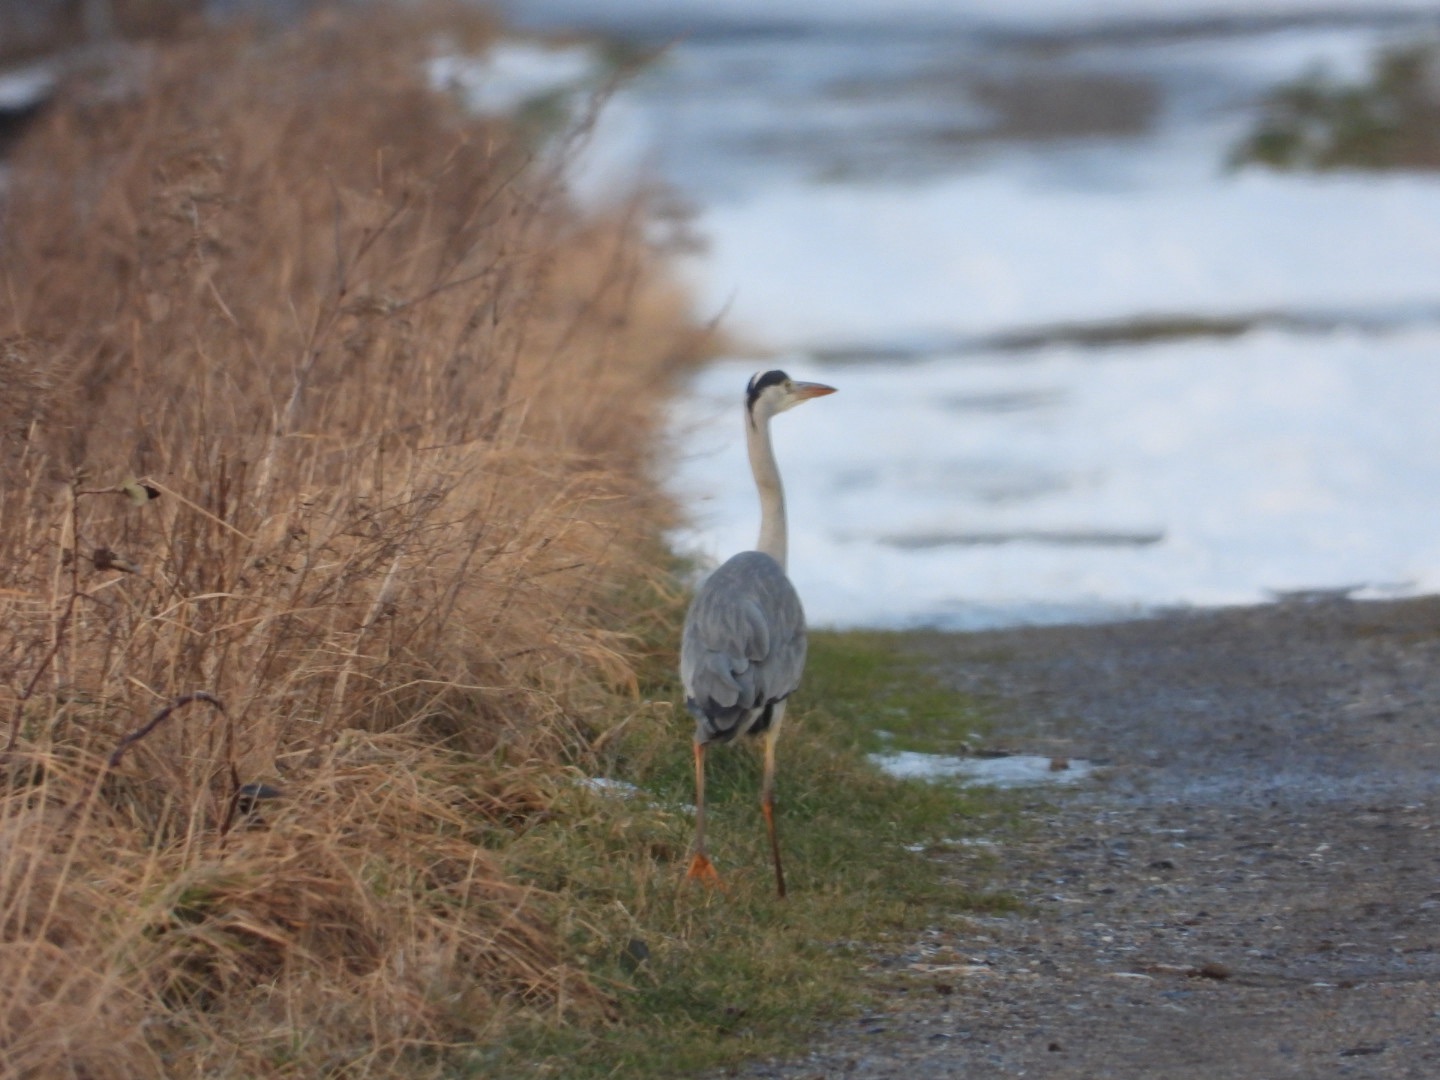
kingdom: Animalia
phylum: Chordata
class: Aves
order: Pelecaniformes
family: Ardeidae
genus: Ardea
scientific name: Ardea cinerea
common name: Fiskehejre
